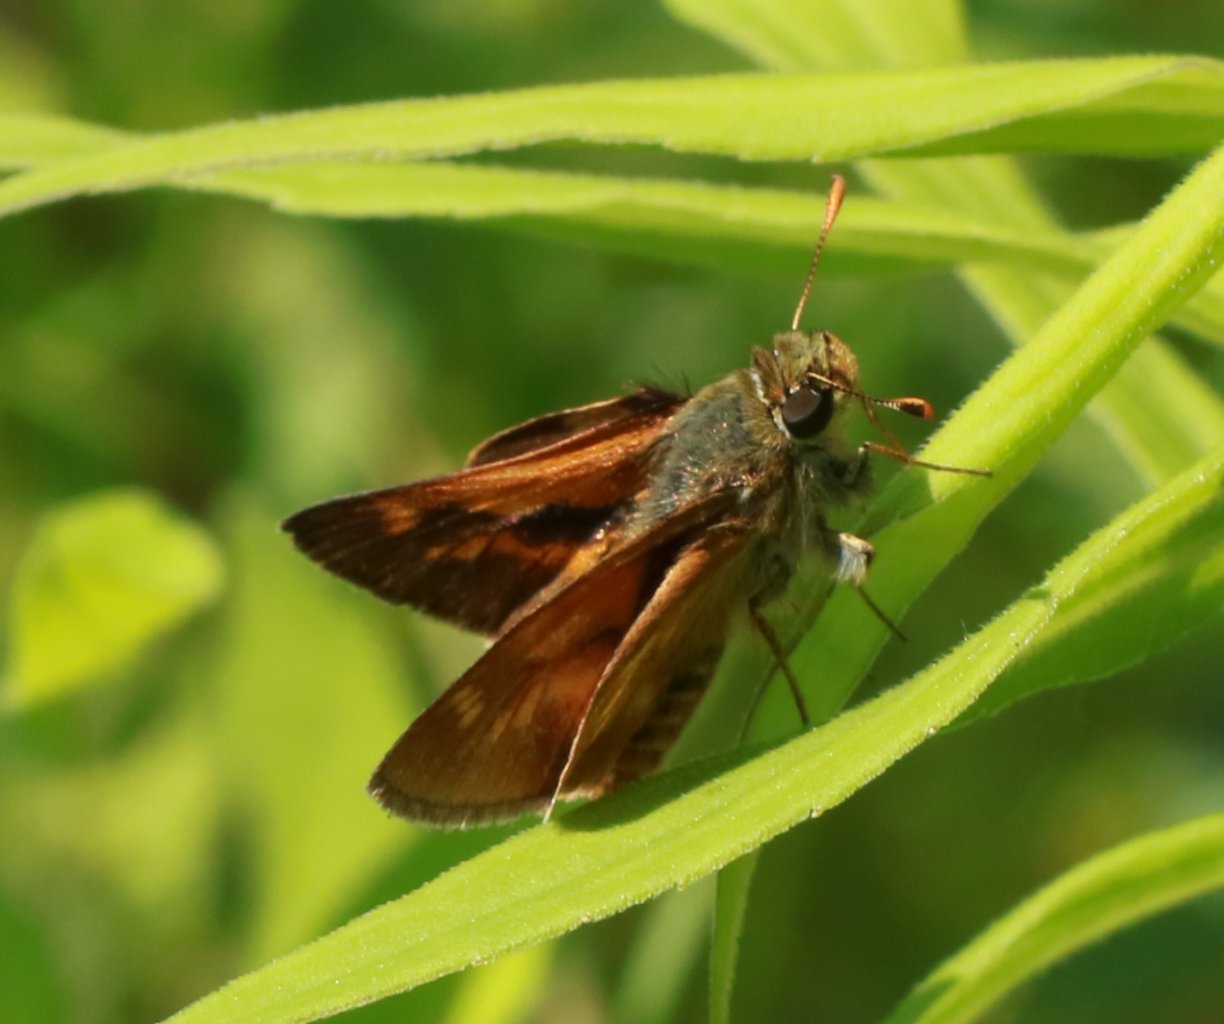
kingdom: Animalia
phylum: Arthropoda
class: Insecta
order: Lepidoptera
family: Hesperiidae
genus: Polites
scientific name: Polites
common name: Long Dash Skipper
